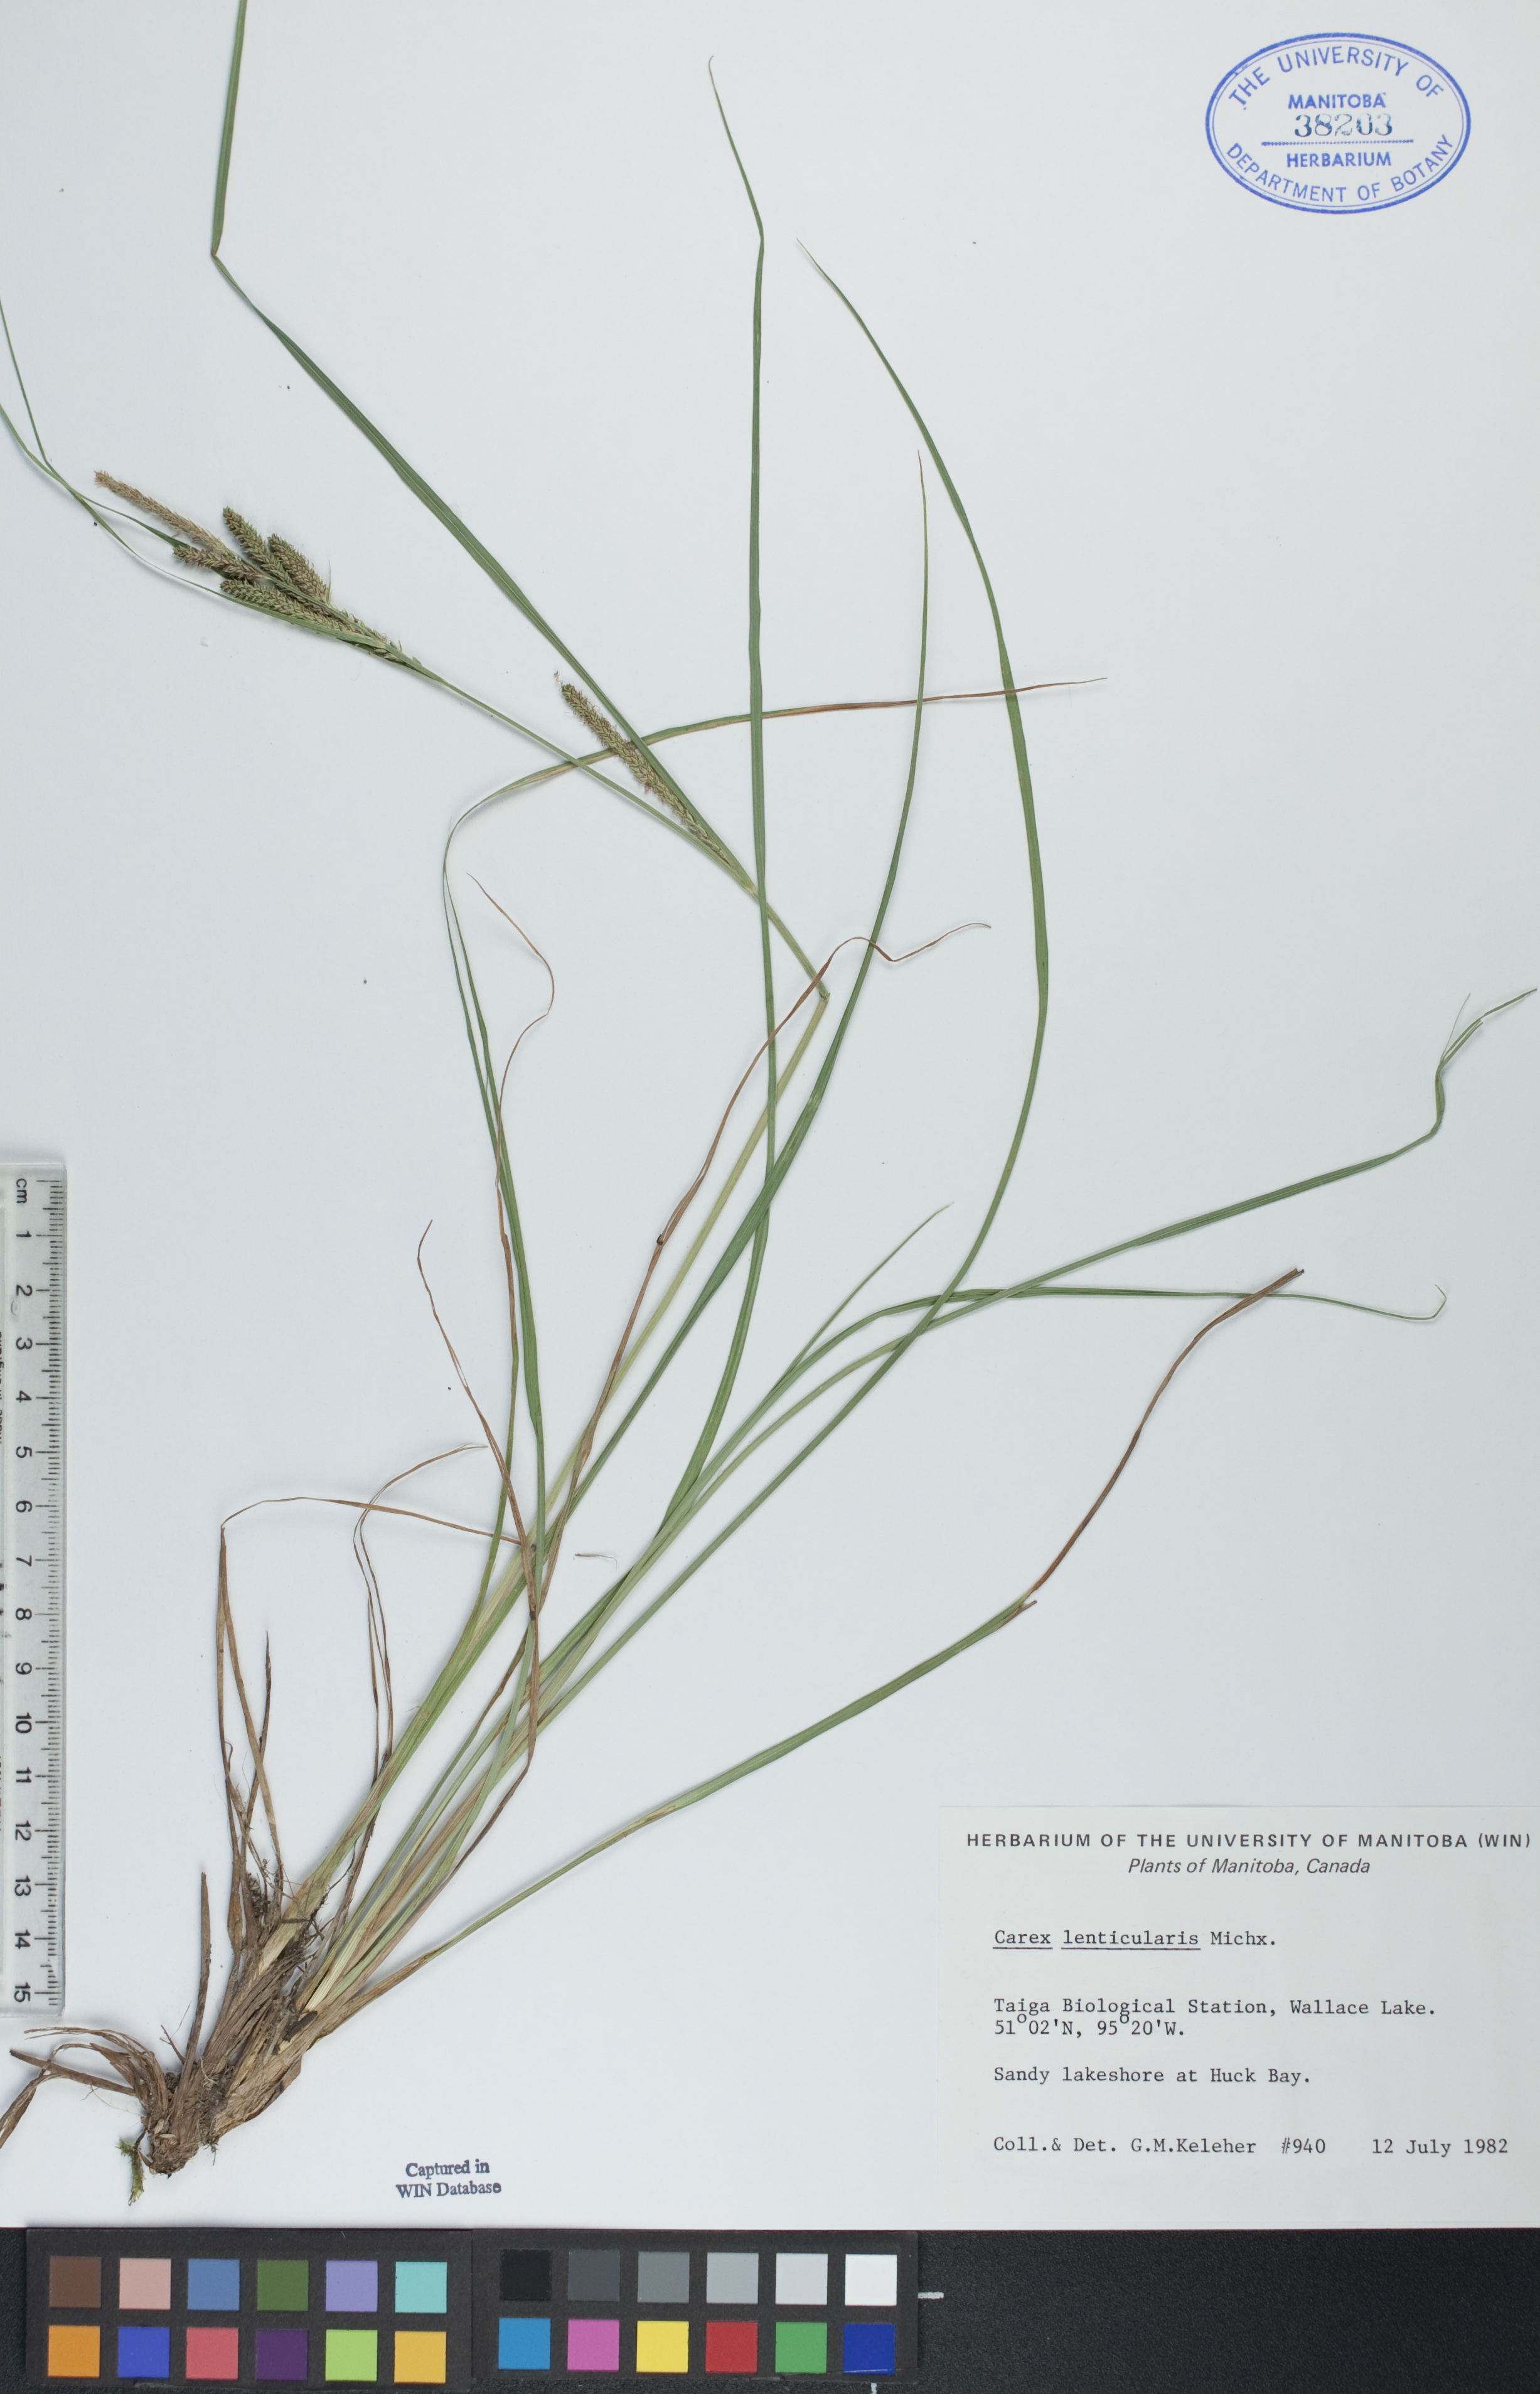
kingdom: Plantae
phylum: Tracheophyta
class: Liliopsida
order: Poales
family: Cyperaceae
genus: Carex
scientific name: Carex lenticularis
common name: Lakeshore sedge
